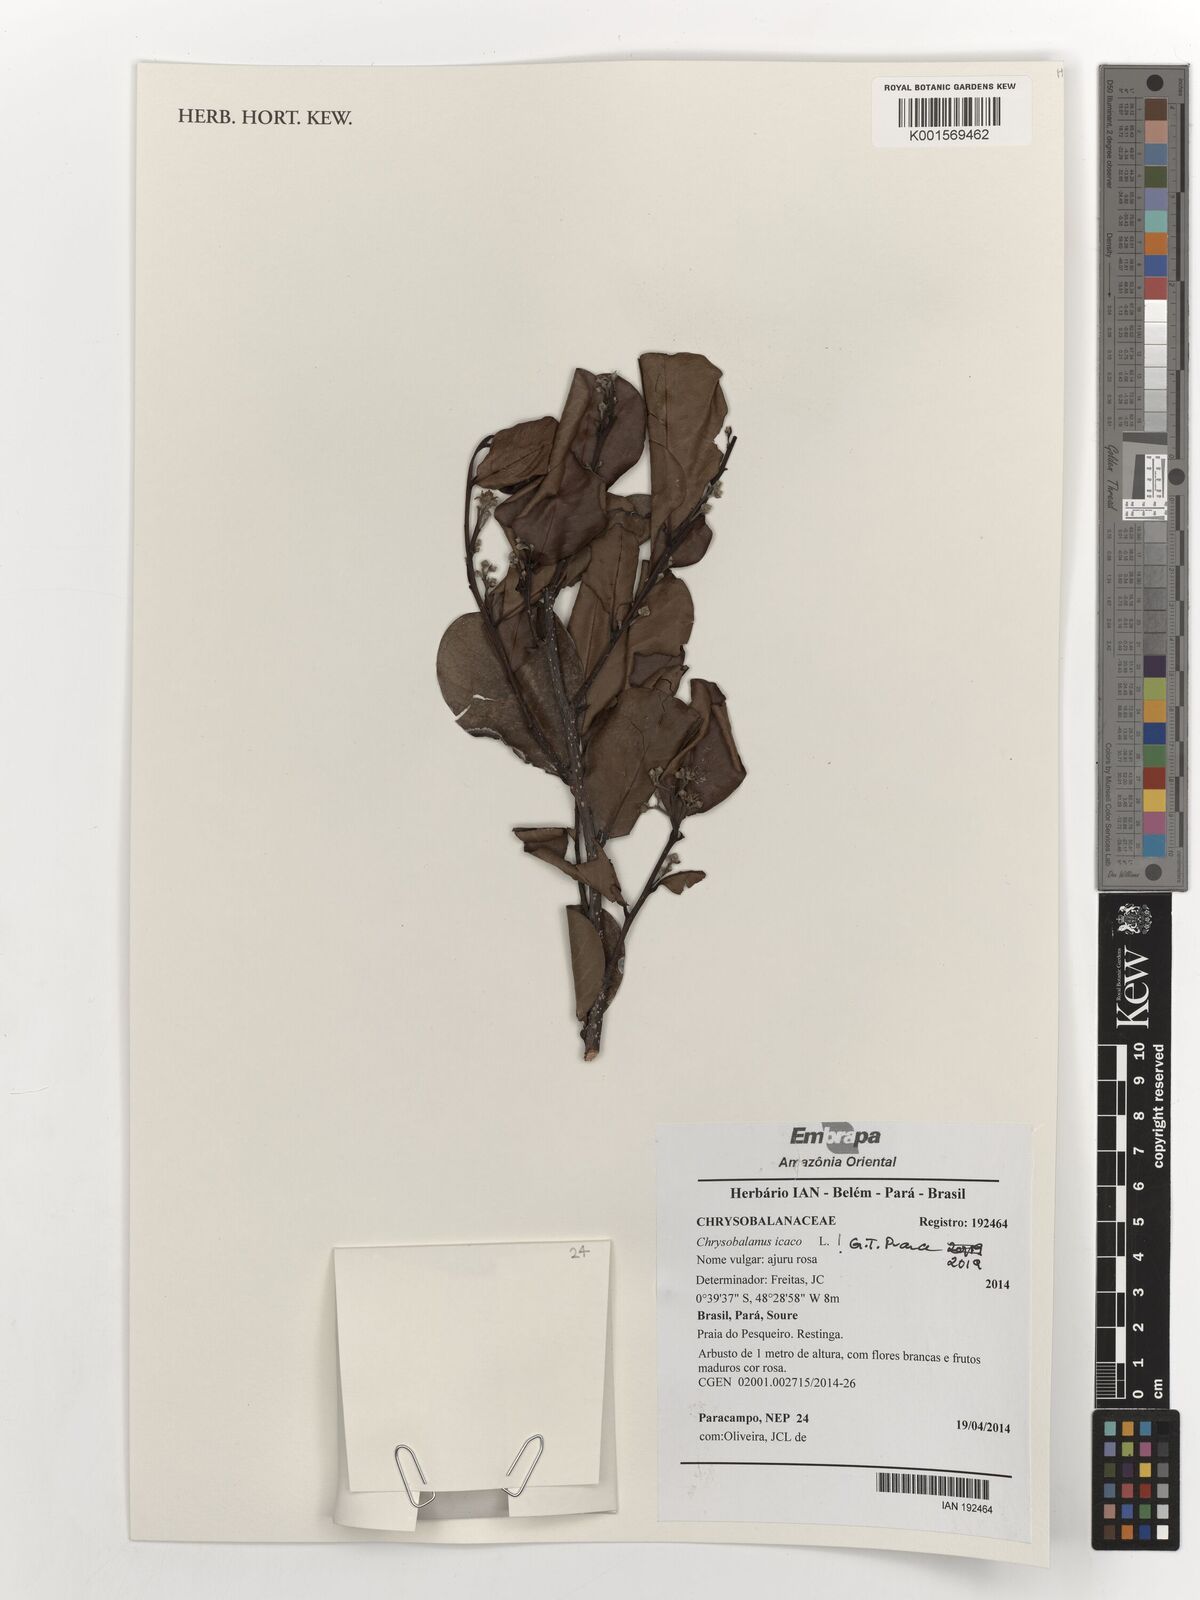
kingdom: Plantae
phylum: Tracheophyta
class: Magnoliopsida
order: Malpighiales
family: Chrysobalanaceae
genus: Chrysobalanus
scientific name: Chrysobalanus icaco
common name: Coco plum
